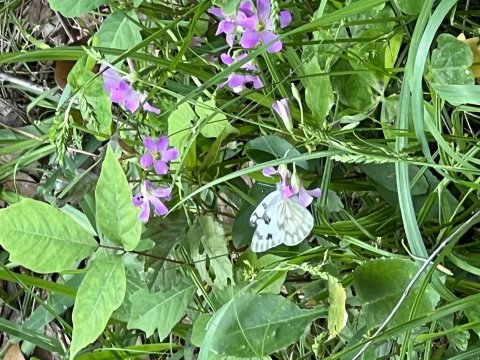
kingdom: Animalia
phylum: Arthropoda
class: Insecta
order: Lepidoptera
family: Pieridae
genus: Pontia
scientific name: Pontia protodice
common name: Checkered White
